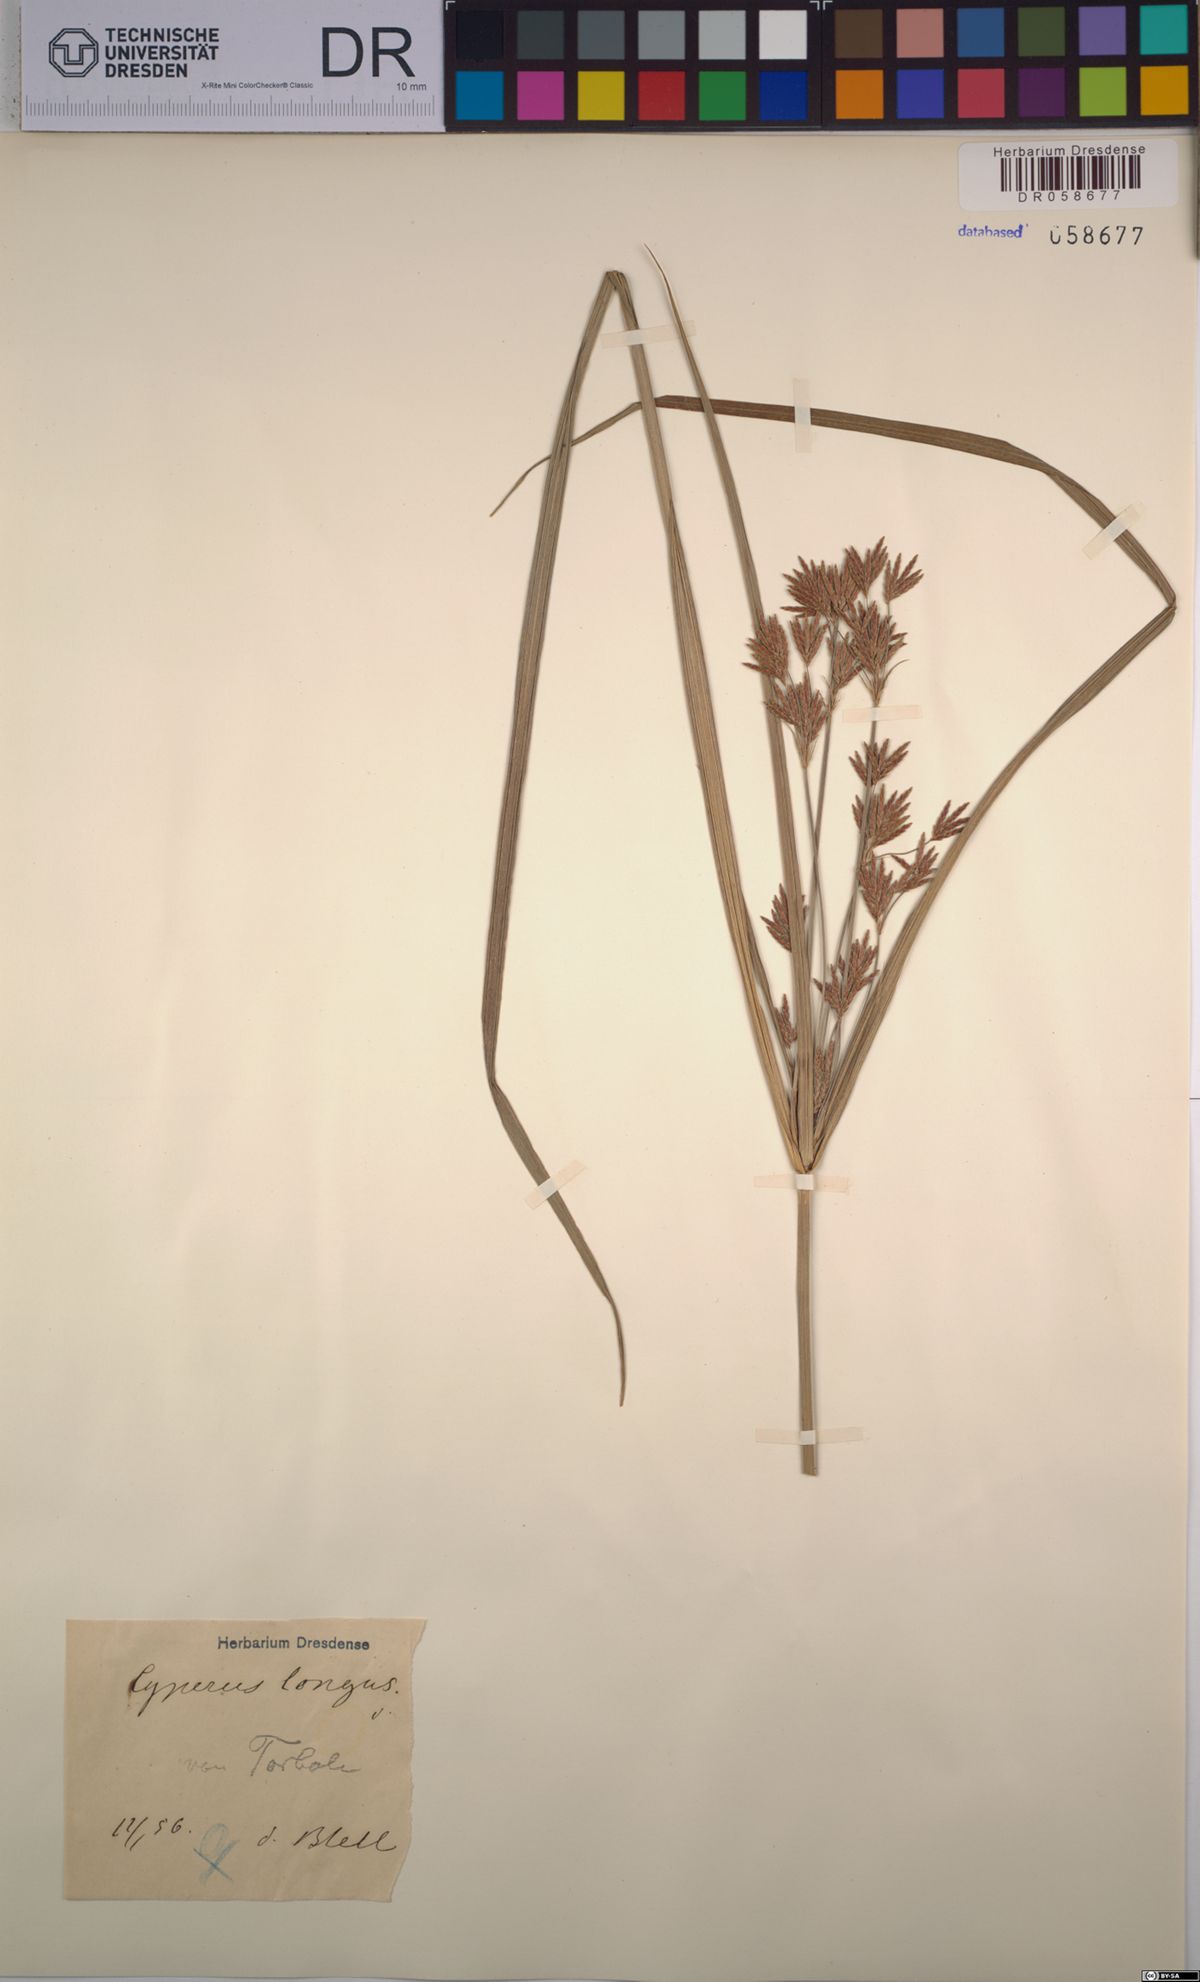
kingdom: Plantae
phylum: Tracheophyta
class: Liliopsida
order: Poales
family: Cyperaceae
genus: Cyperus
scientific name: Cyperus longus
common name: Galingale
